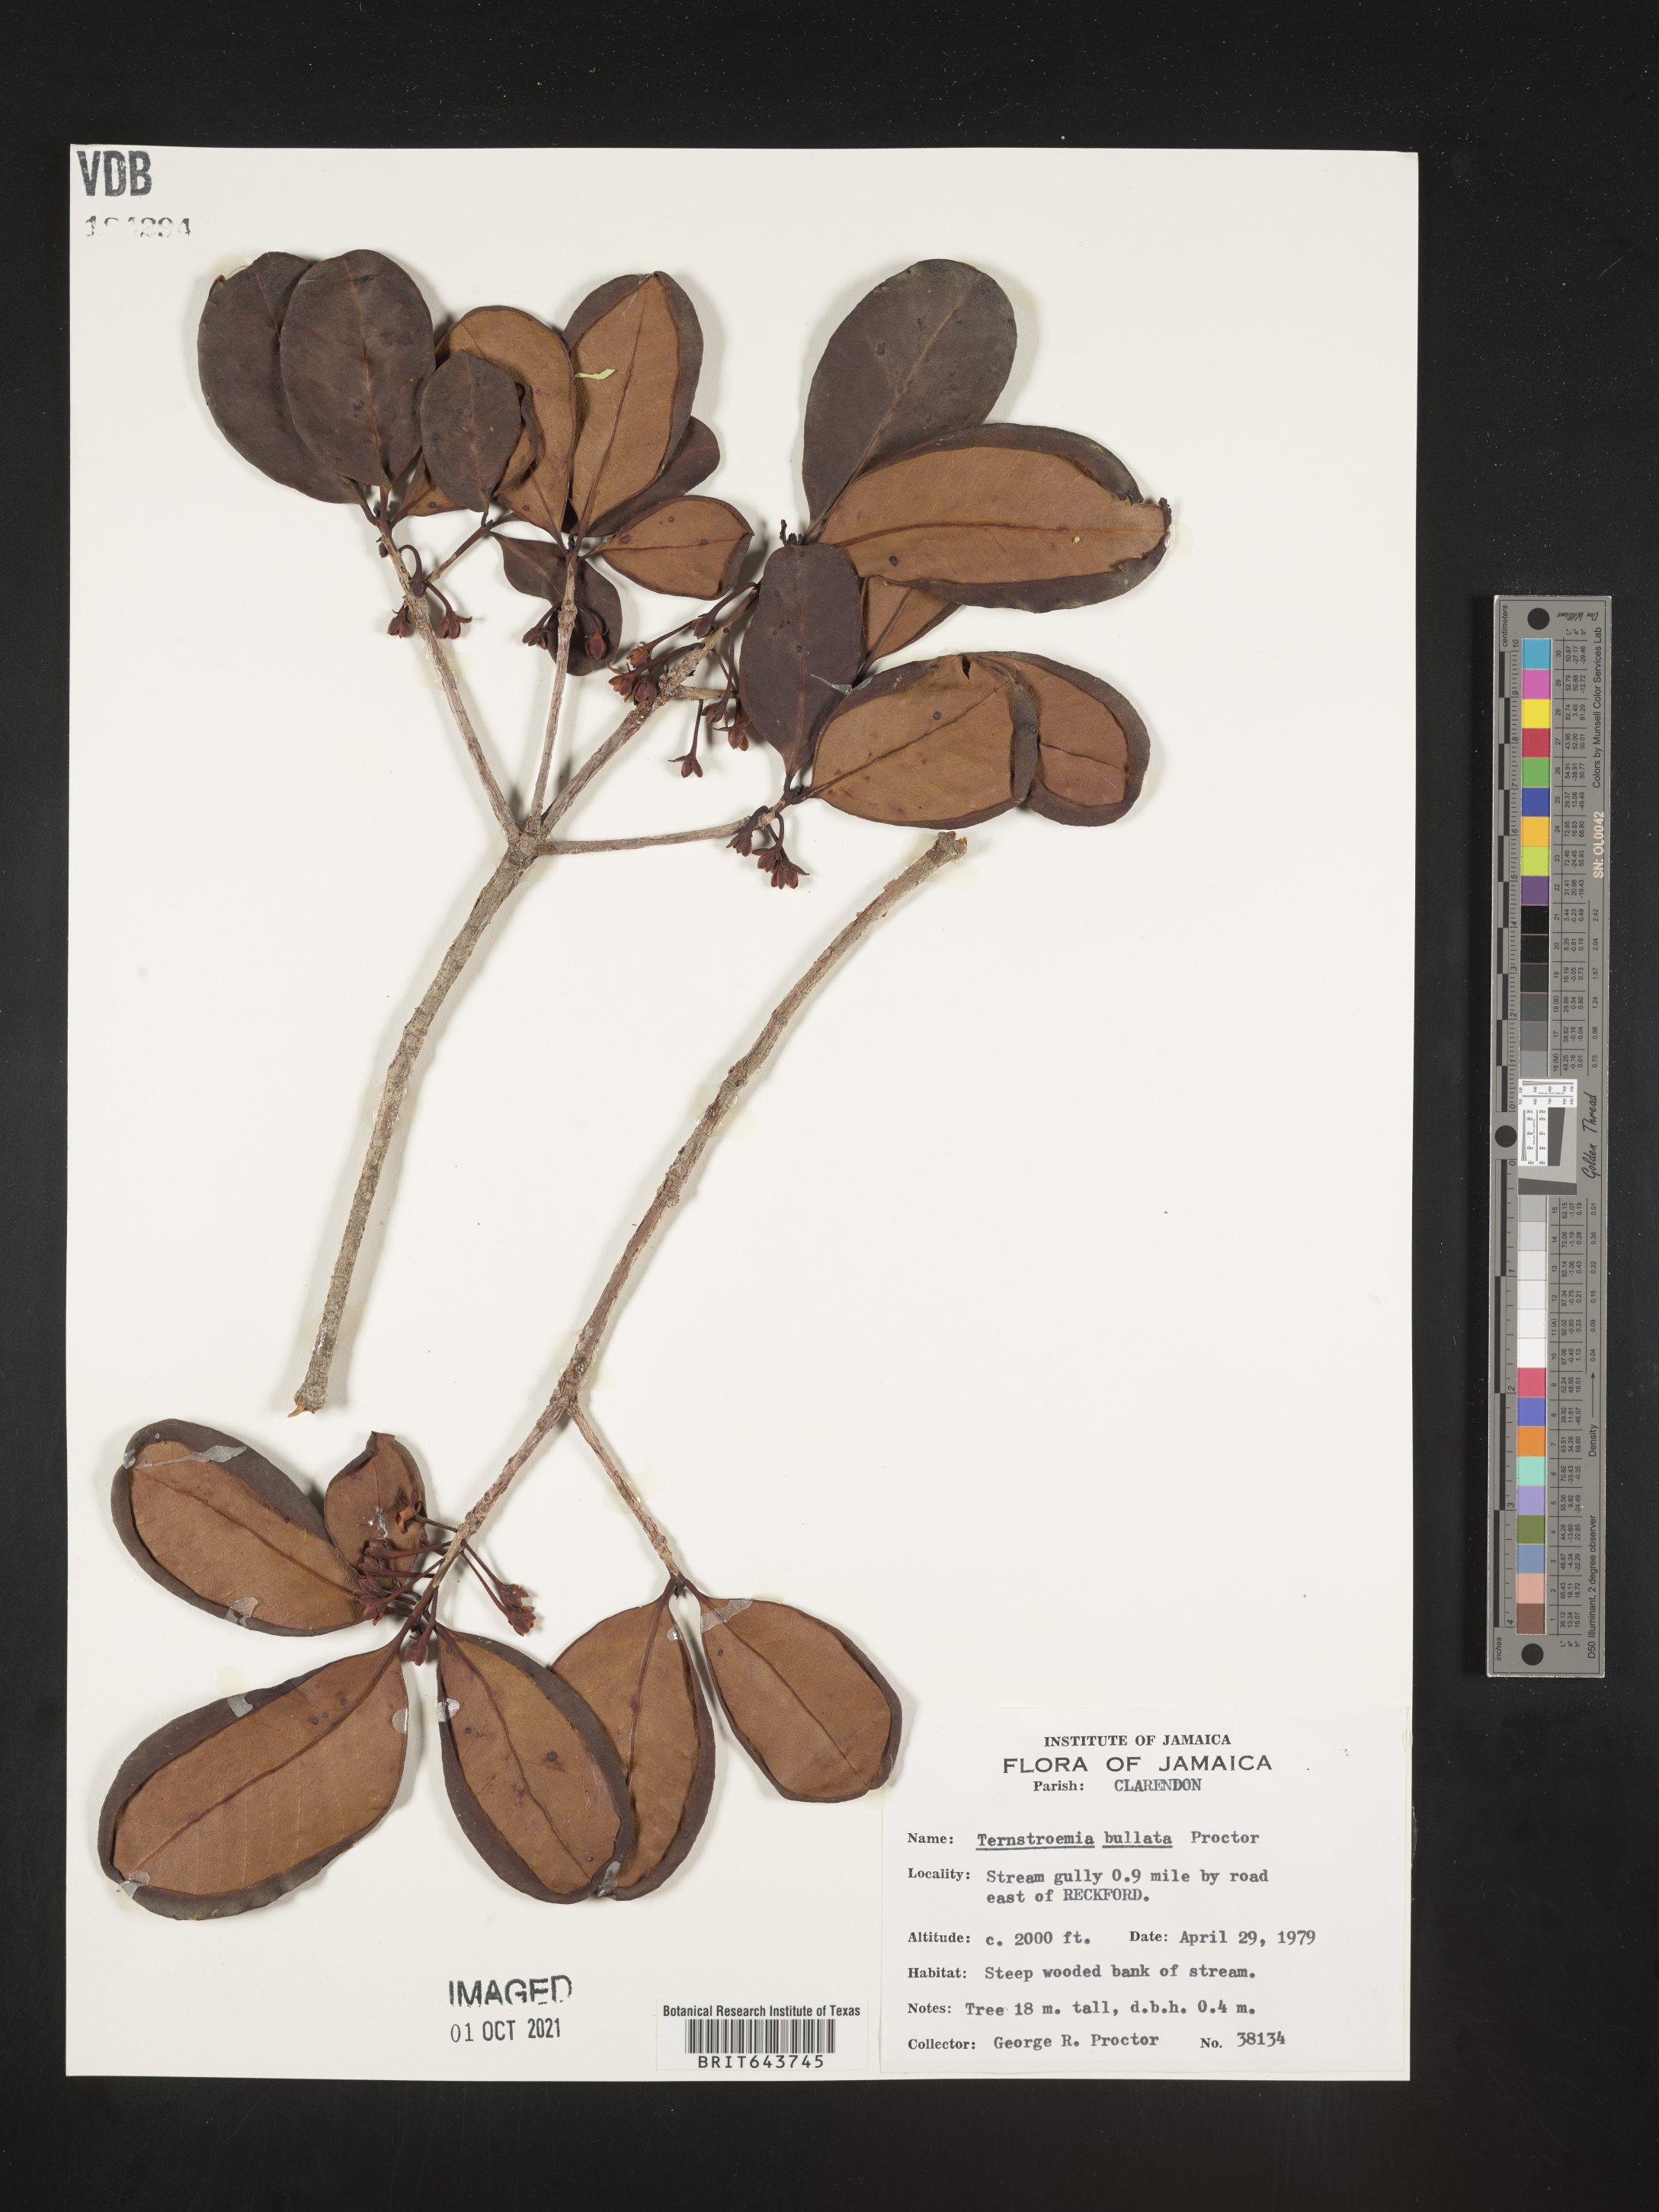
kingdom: Plantae
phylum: Tracheophyta
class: Magnoliopsida
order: Ericales
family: Pentaphylacaceae
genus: Ternstroemia
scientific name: Ternstroemia
